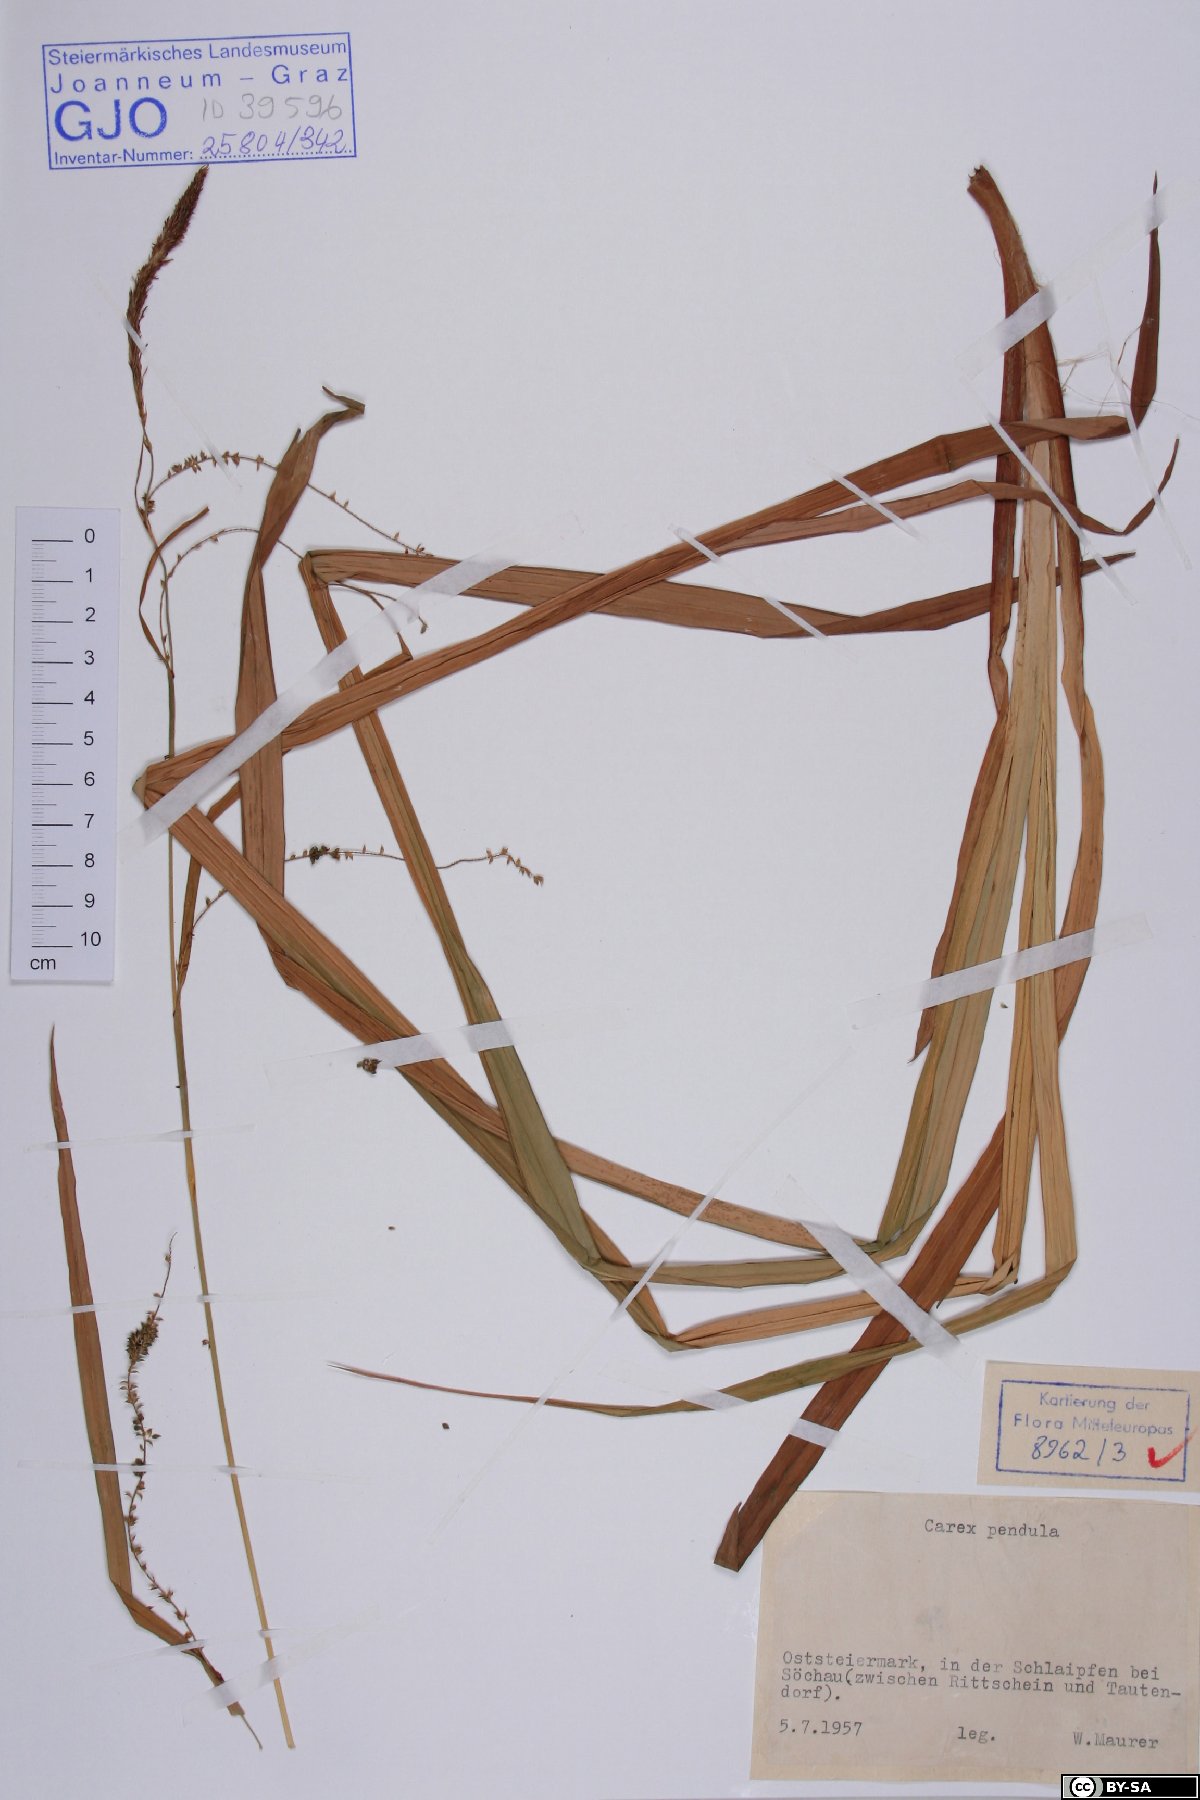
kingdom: Plantae
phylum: Tracheophyta
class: Liliopsida
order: Poales
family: Cyperaceae
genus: Carex
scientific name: Carex pendula
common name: Pendulous sedge
